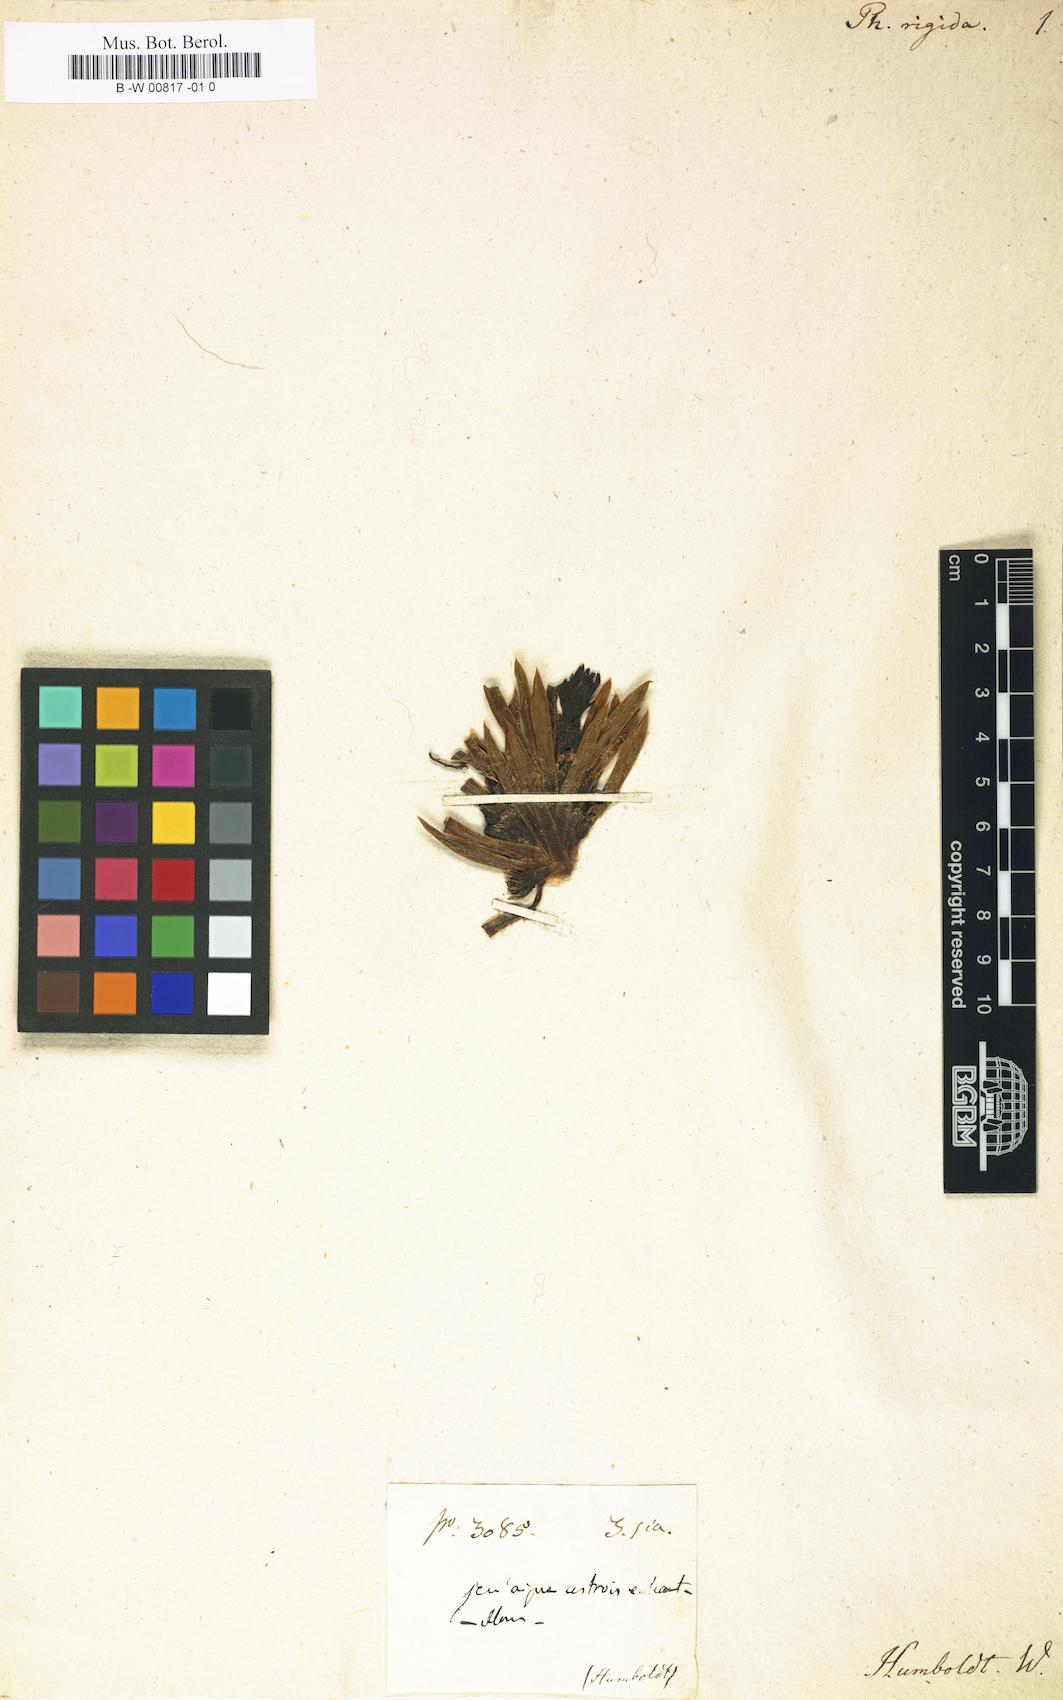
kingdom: Plantae
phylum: Tracheophyta
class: Magnoliopsida
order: Dipsacales
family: Caprifoliaceae
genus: Valeriana
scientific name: Valeriana rigida
